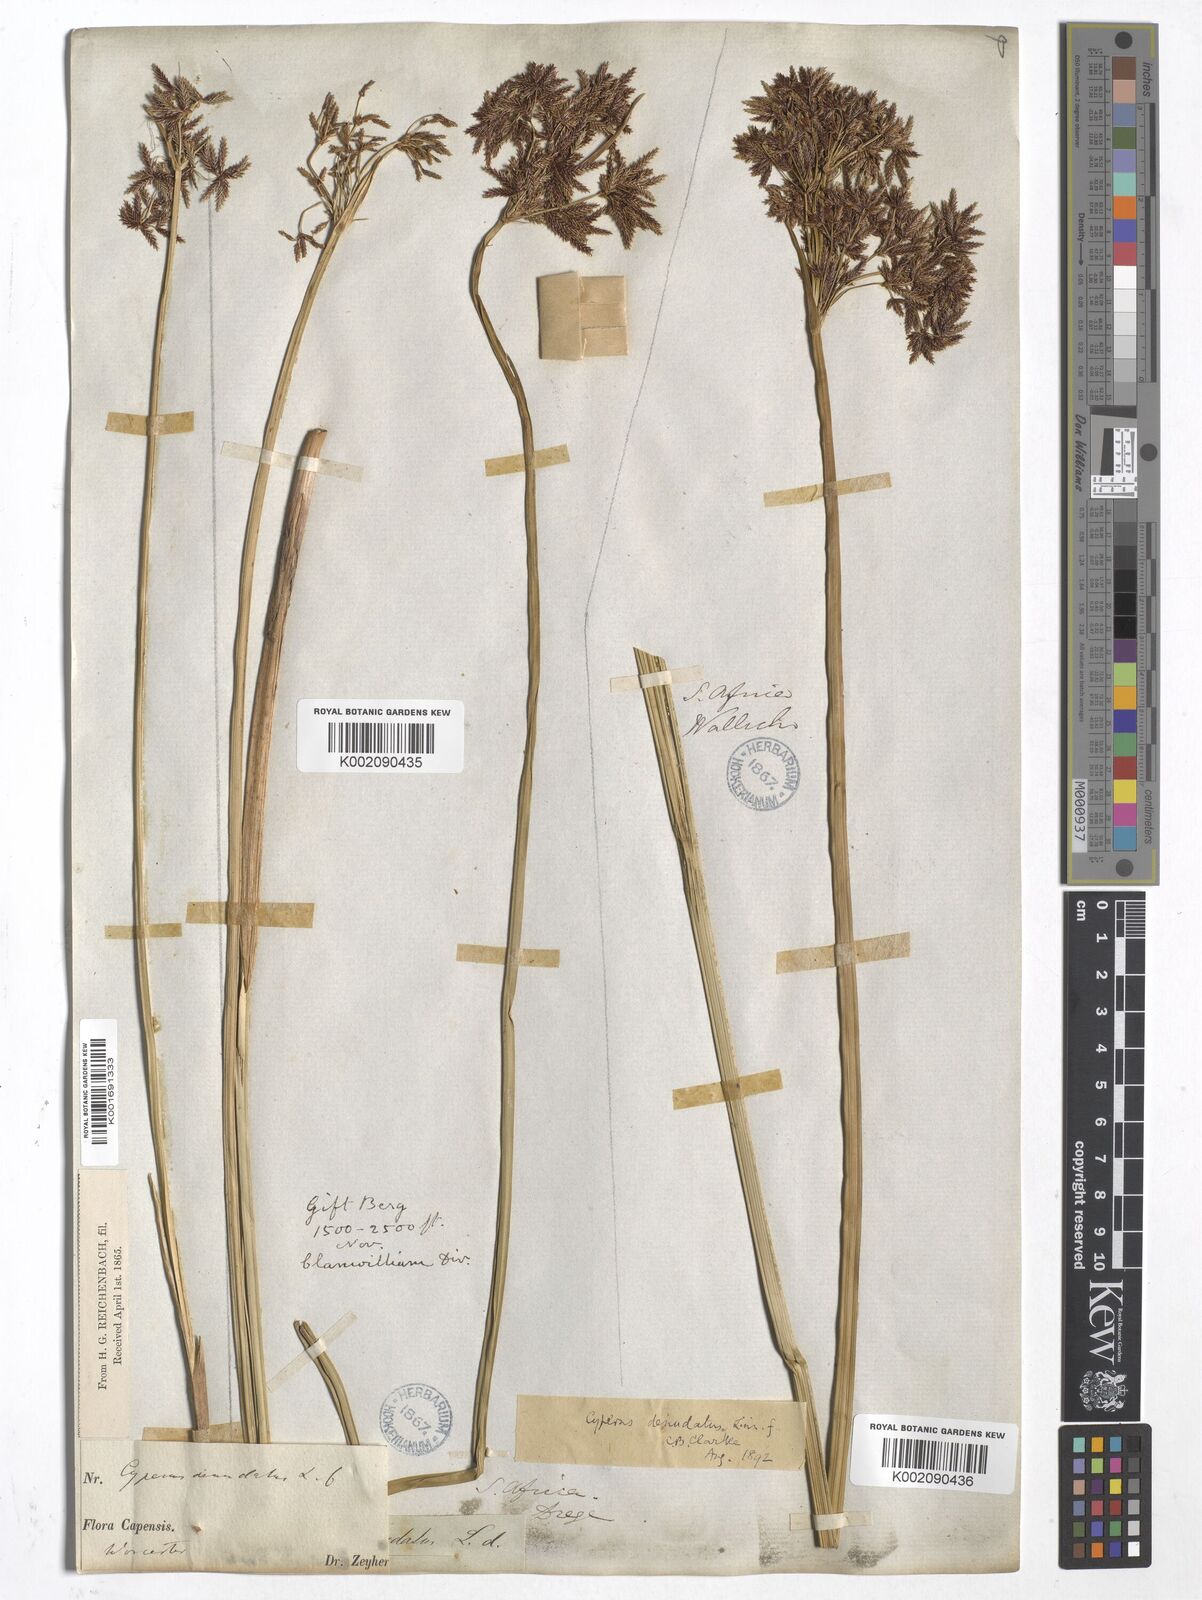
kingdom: Plantae
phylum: Tracheophyta
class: Liliopsida
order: Poales
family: Cyperaceae
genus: Cyperus
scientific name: Cyperus denudatus
